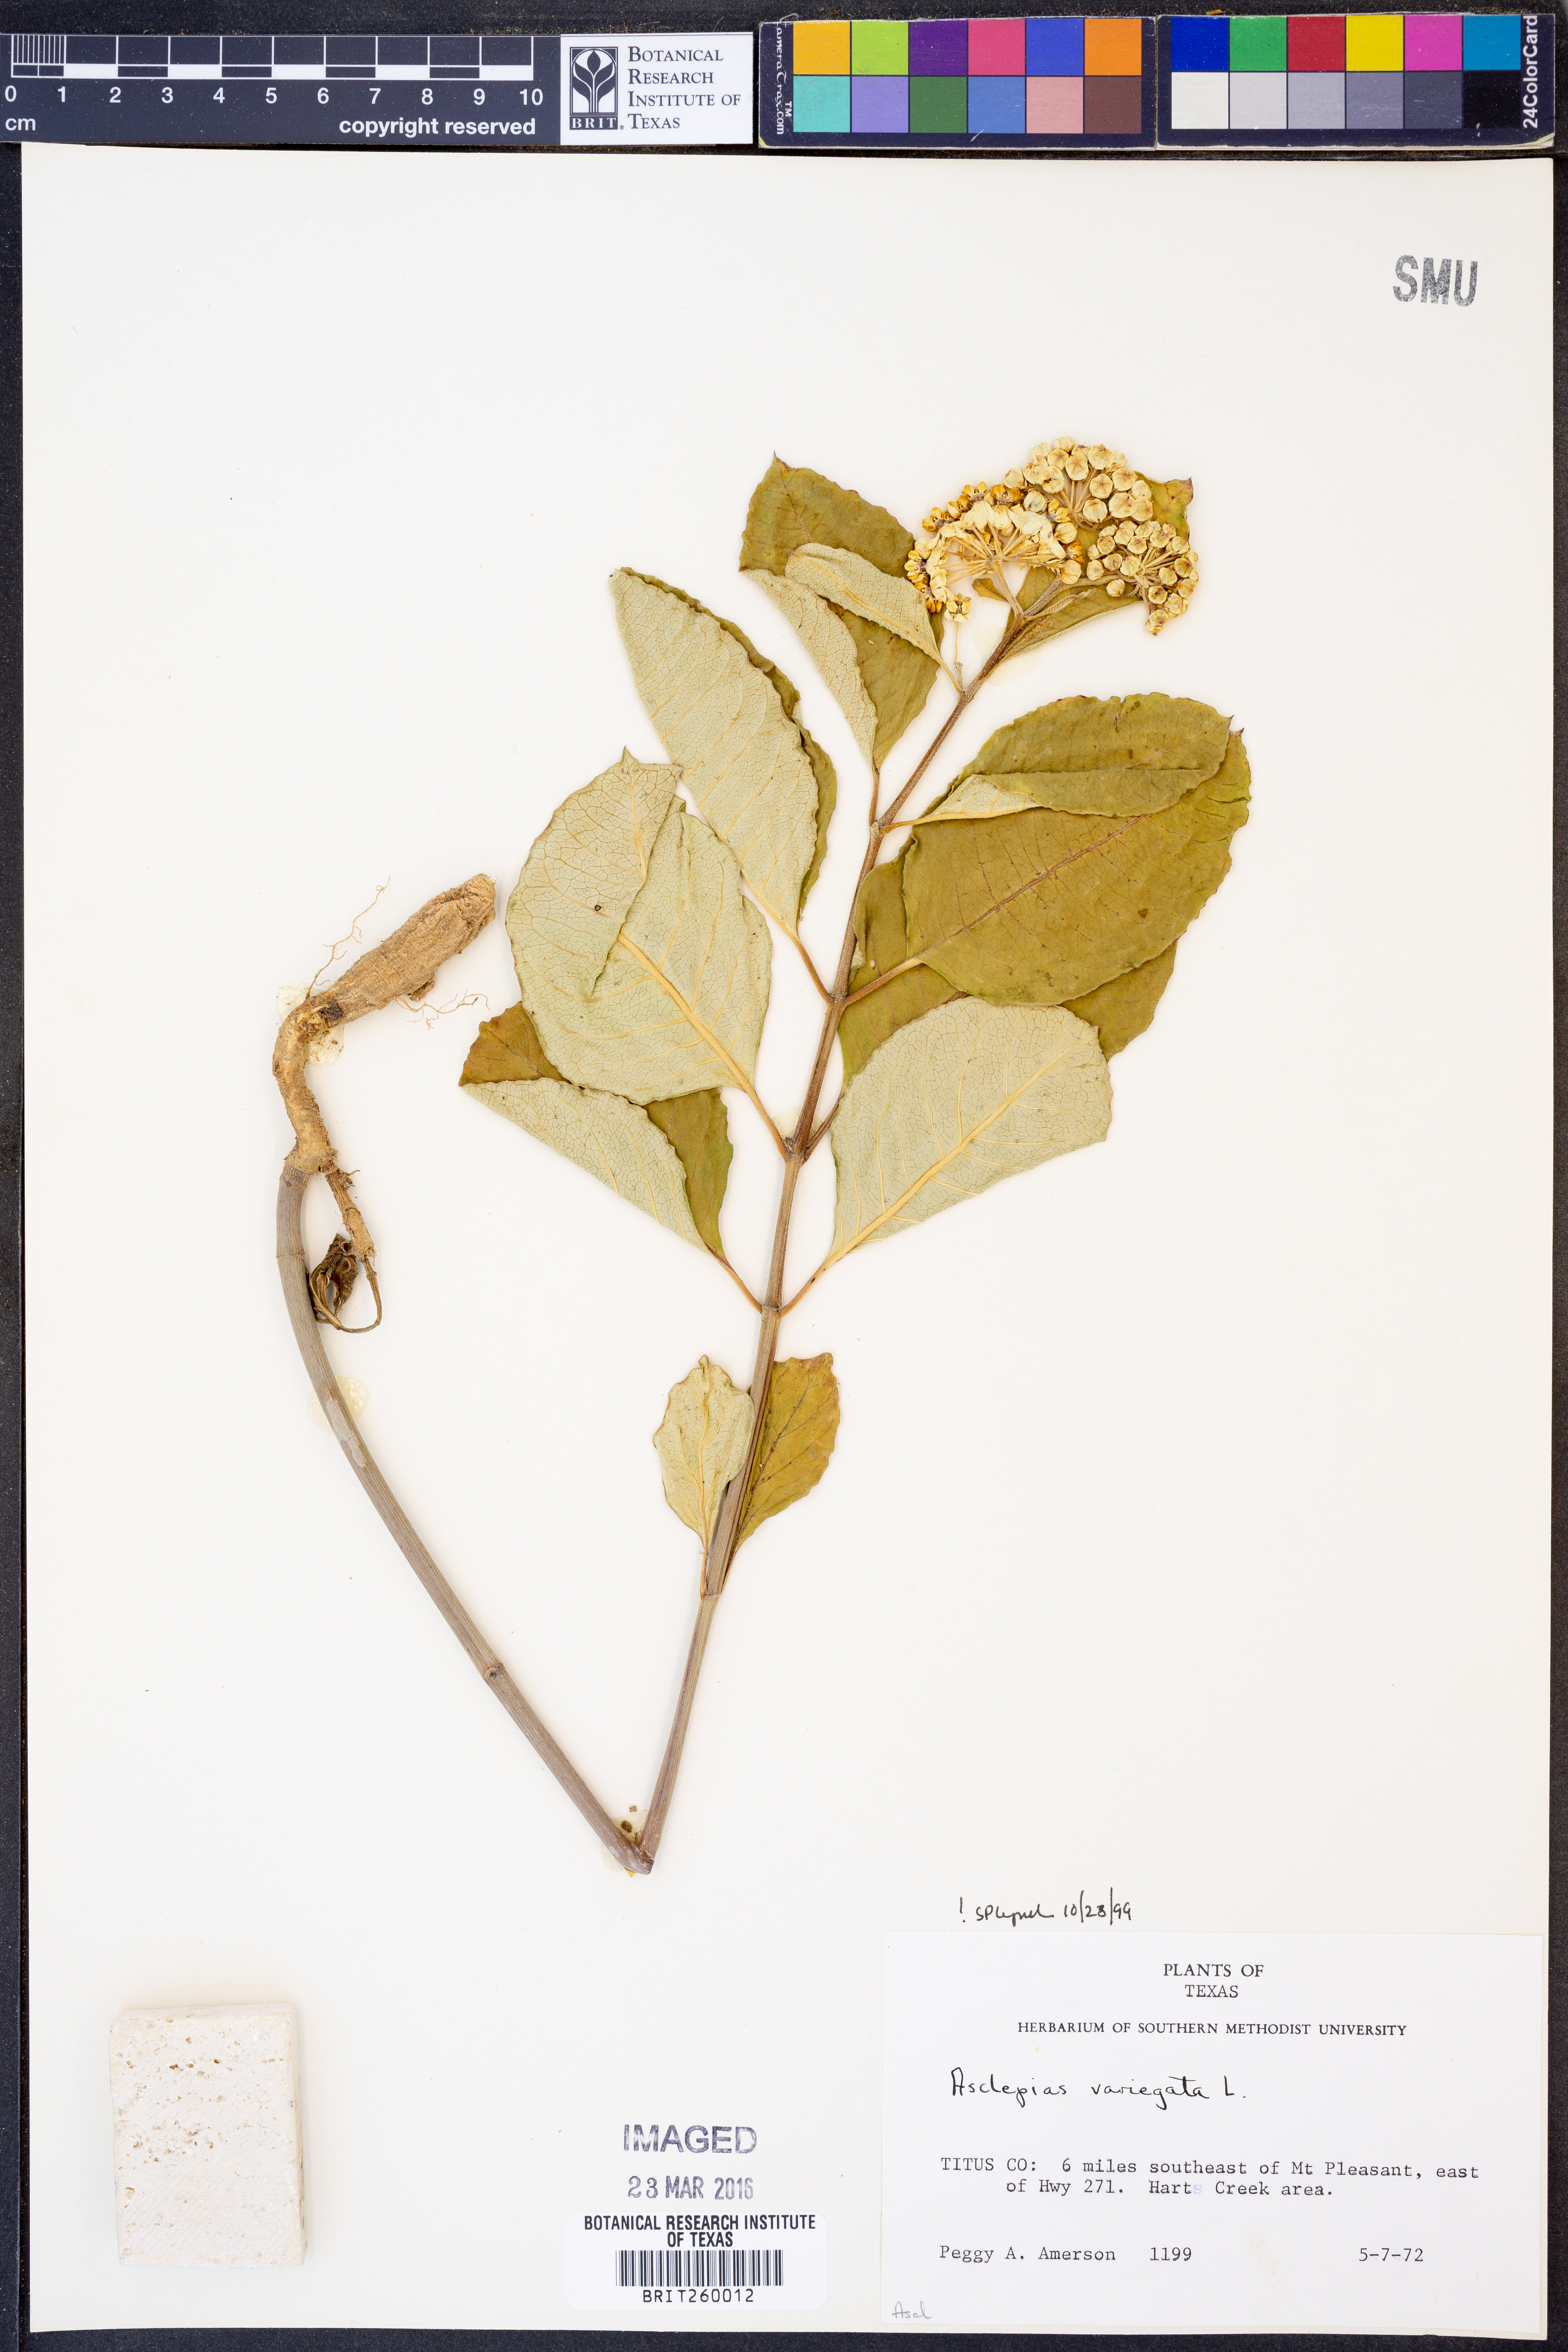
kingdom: Plantae
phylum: Tracheophyta
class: Magnoliopsida
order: Gentianales
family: Apocynaceae
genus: Asclepias
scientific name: Asclepias variegata
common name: Variegated milkweed
